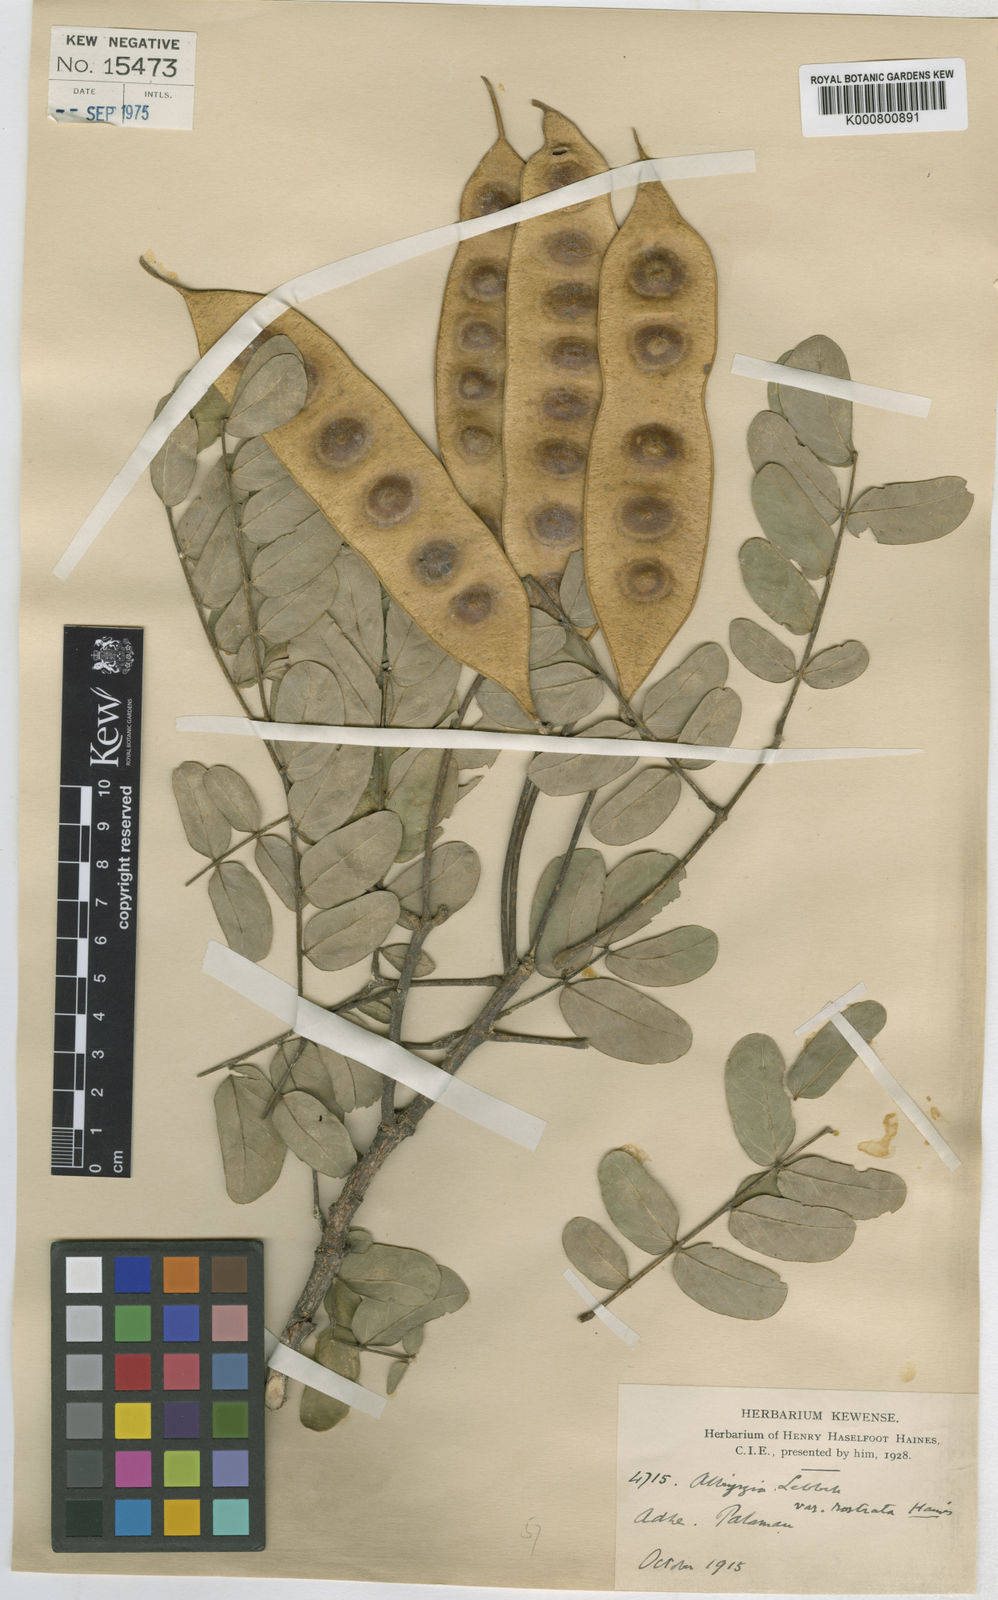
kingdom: Plantae
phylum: Tracheophyta
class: Magnoliopsida
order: Fabales
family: Fabaceae
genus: Albizia
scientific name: Albizia
